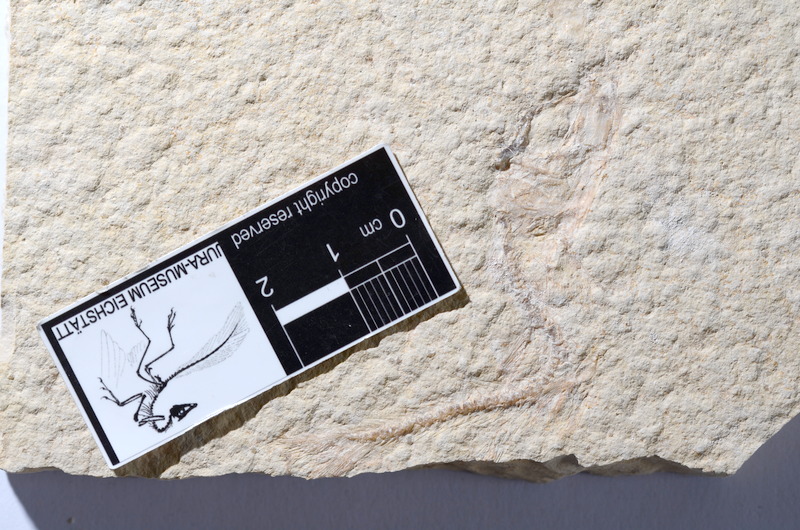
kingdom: Animalia
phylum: Chordata
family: Ascalaboidae
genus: Tharsis
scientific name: Tharsis dubius
